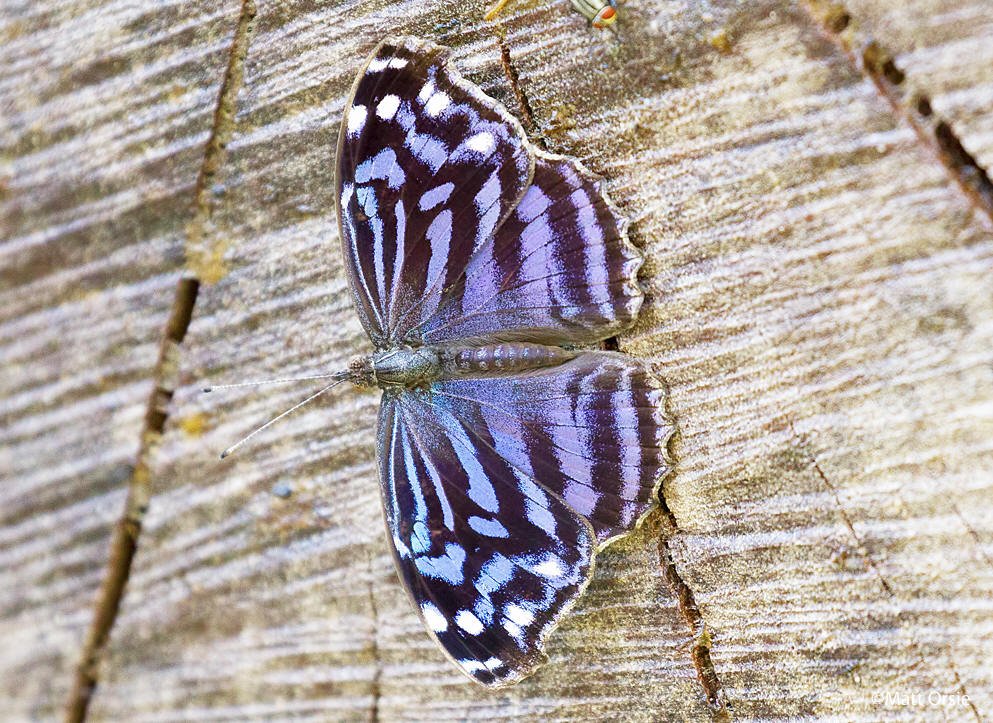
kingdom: Animalia
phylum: Arthropoda
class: Insecta
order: Lepidoptera
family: Nymphalidae
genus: Myscelia
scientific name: Myscelia ethusa
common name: Mexican Bluewing
